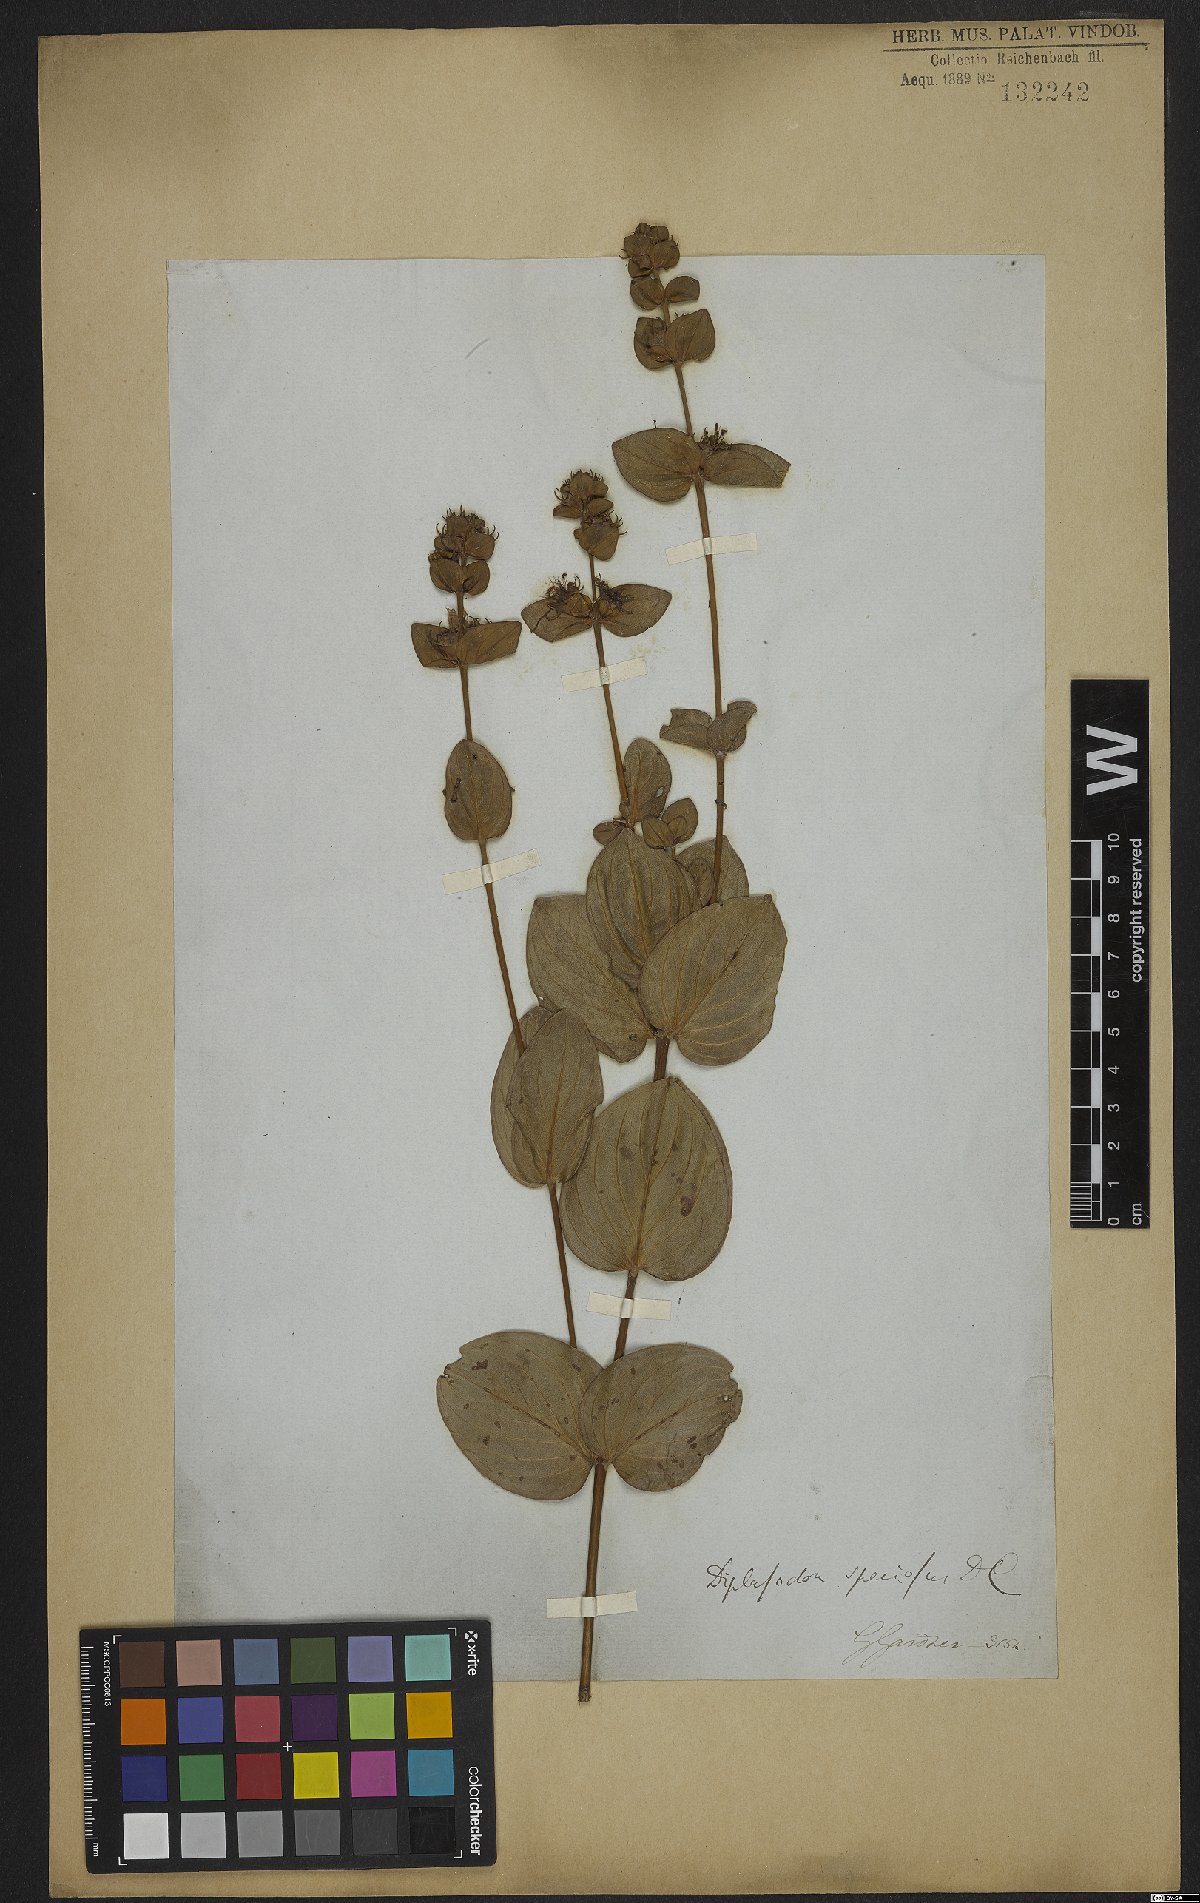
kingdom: Plantae
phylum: Tracheophyta
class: Magnoliopsida
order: Myrtales
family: Lythraceae
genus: Cuphea
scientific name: Cuphea llavea
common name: Tiny-mice
